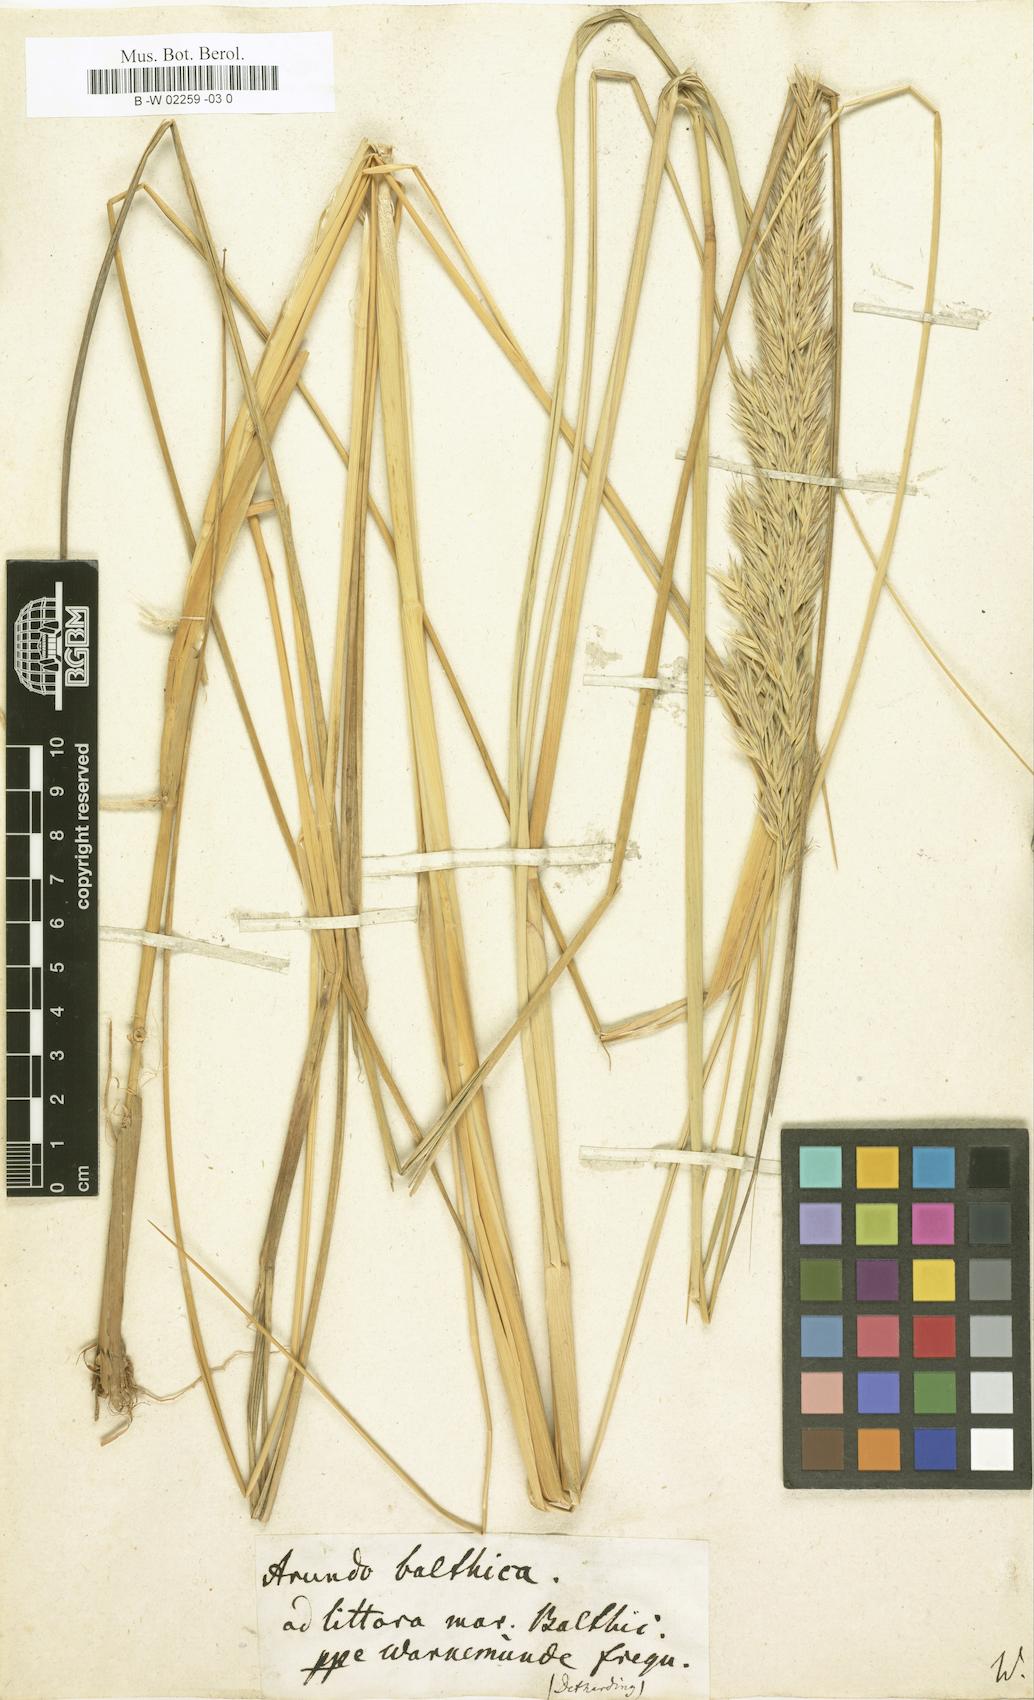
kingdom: Plantae
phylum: Tracheophyta
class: Liliopsida
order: Poales
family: Poaceae
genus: Calamagrostis
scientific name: Calamagrostis baltica
